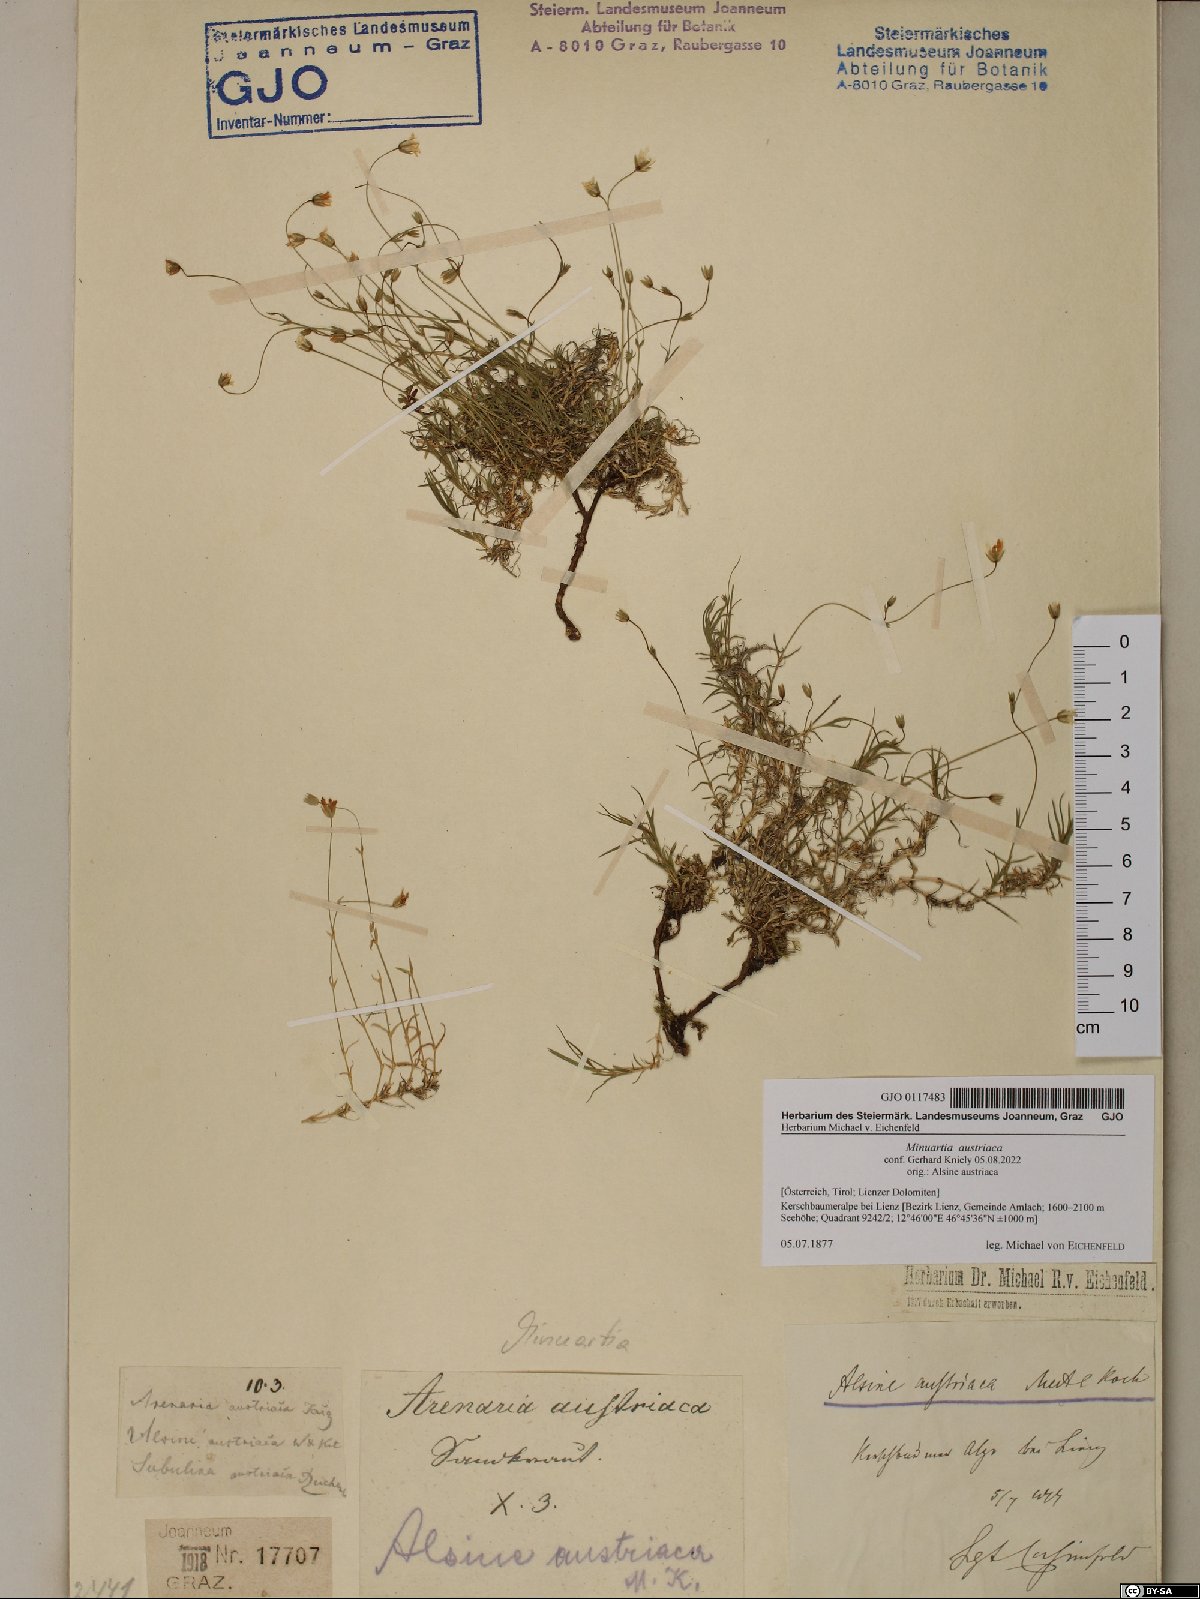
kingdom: Plantae
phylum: Tracheophyta
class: Magnoliopsida
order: Caryophyllales
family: Caryophyllaceae
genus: Sabulina
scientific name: Sabulina austriaca
